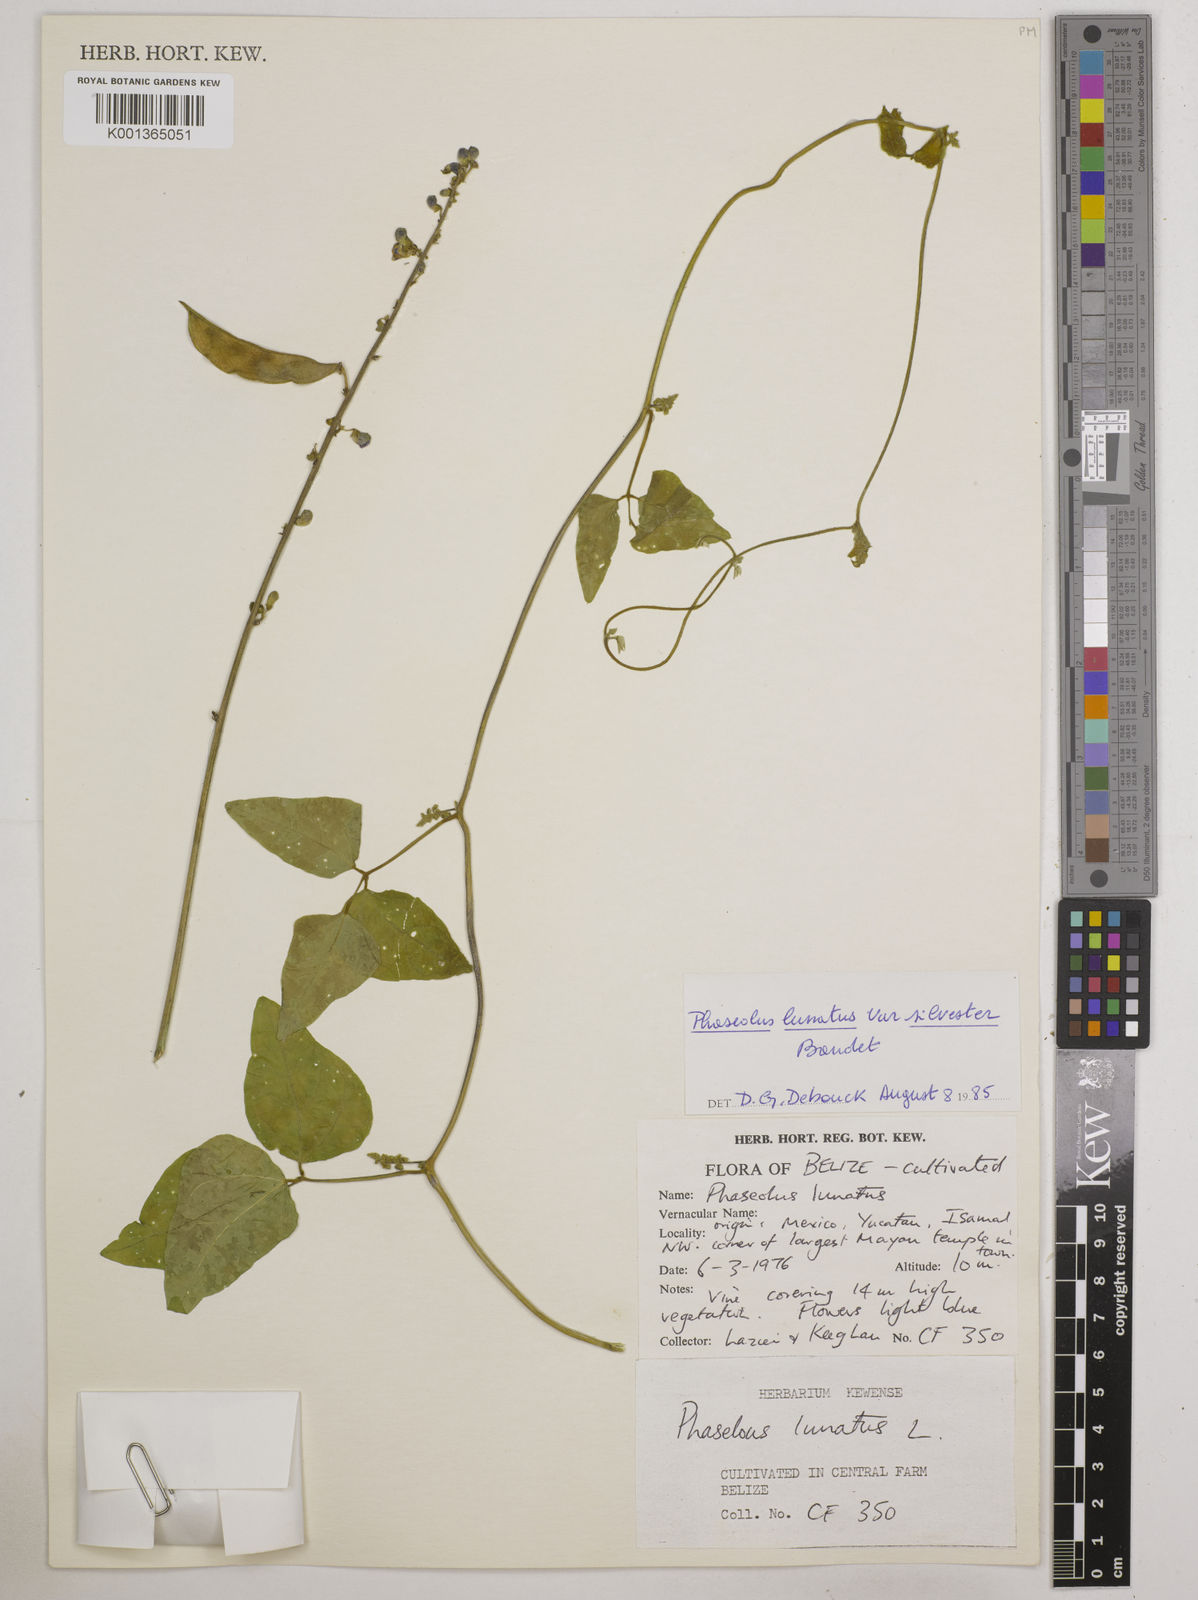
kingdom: Plantae
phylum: Tracheophyta
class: Magnoliopsida
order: Fabales
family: Fabaceae
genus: Phaseolus
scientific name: Phaseolus lunatus
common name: Sieva bean
